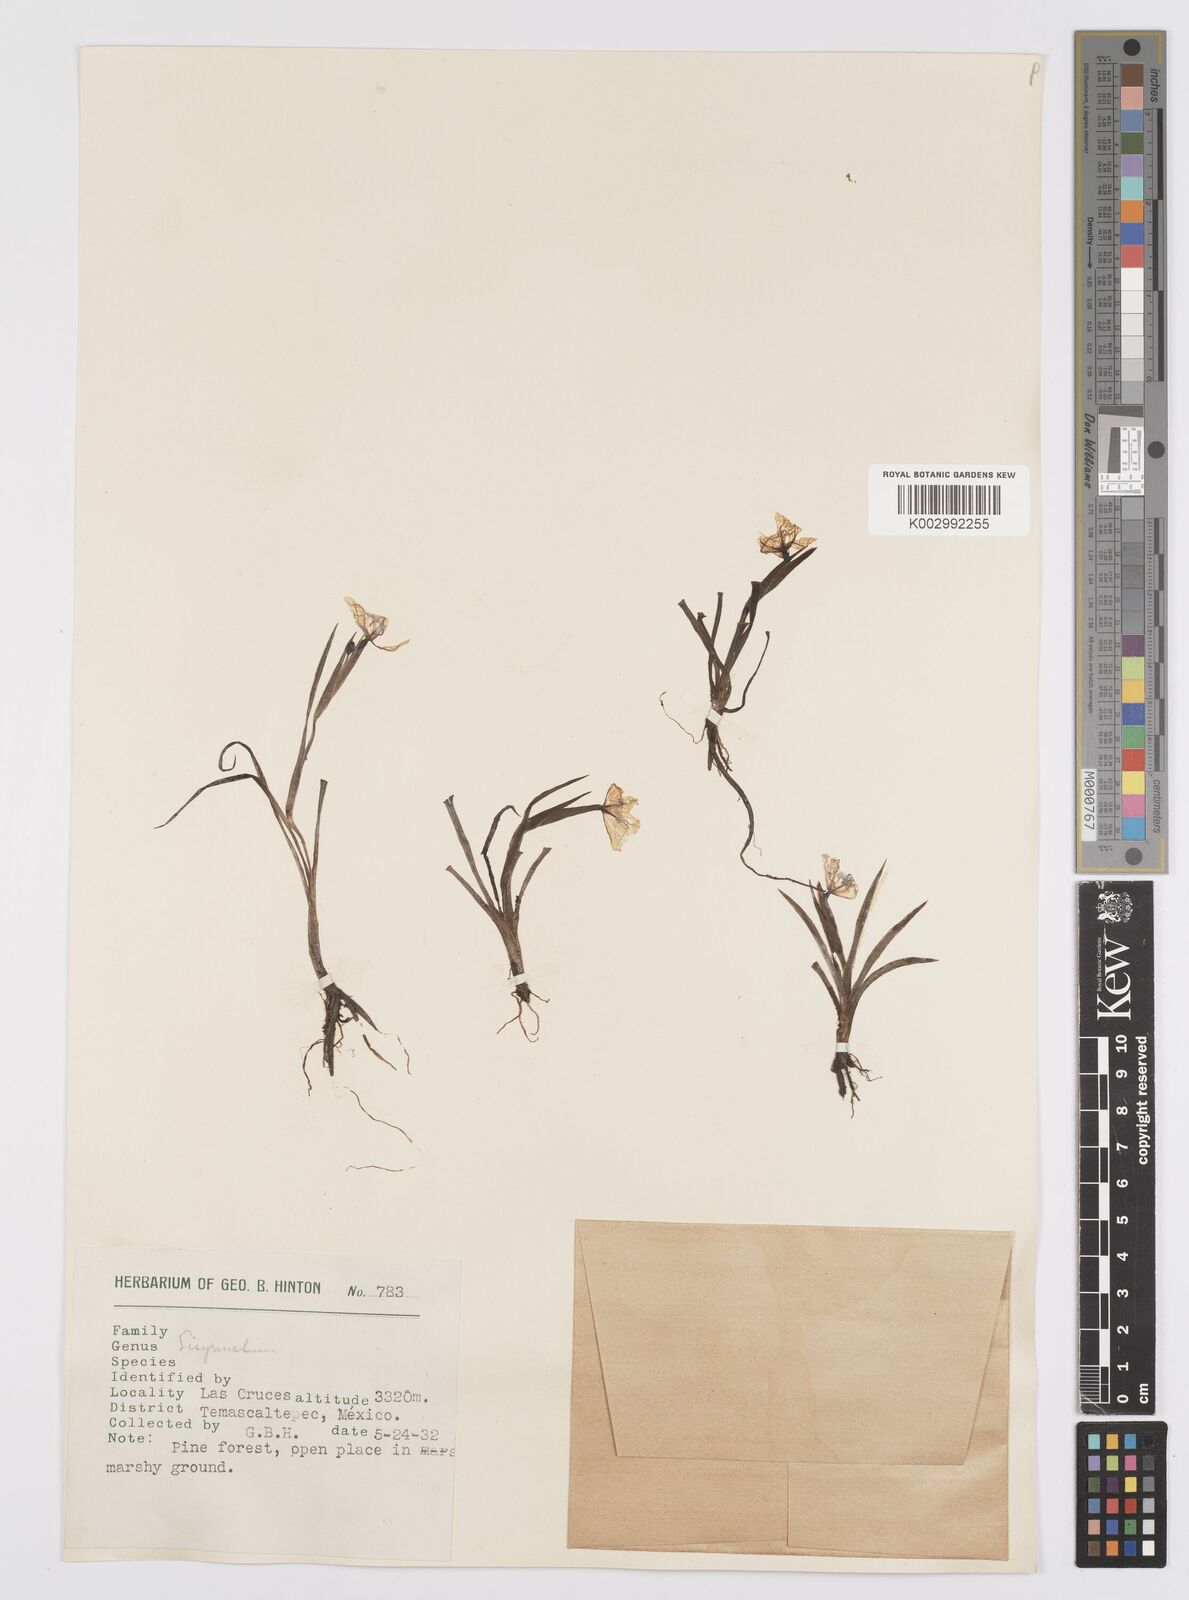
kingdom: Plantae
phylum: Tracheophyta
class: Liliopsida
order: Asparagales
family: Iridaceae
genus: Sisyrinchium
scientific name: Sisyrinchium
